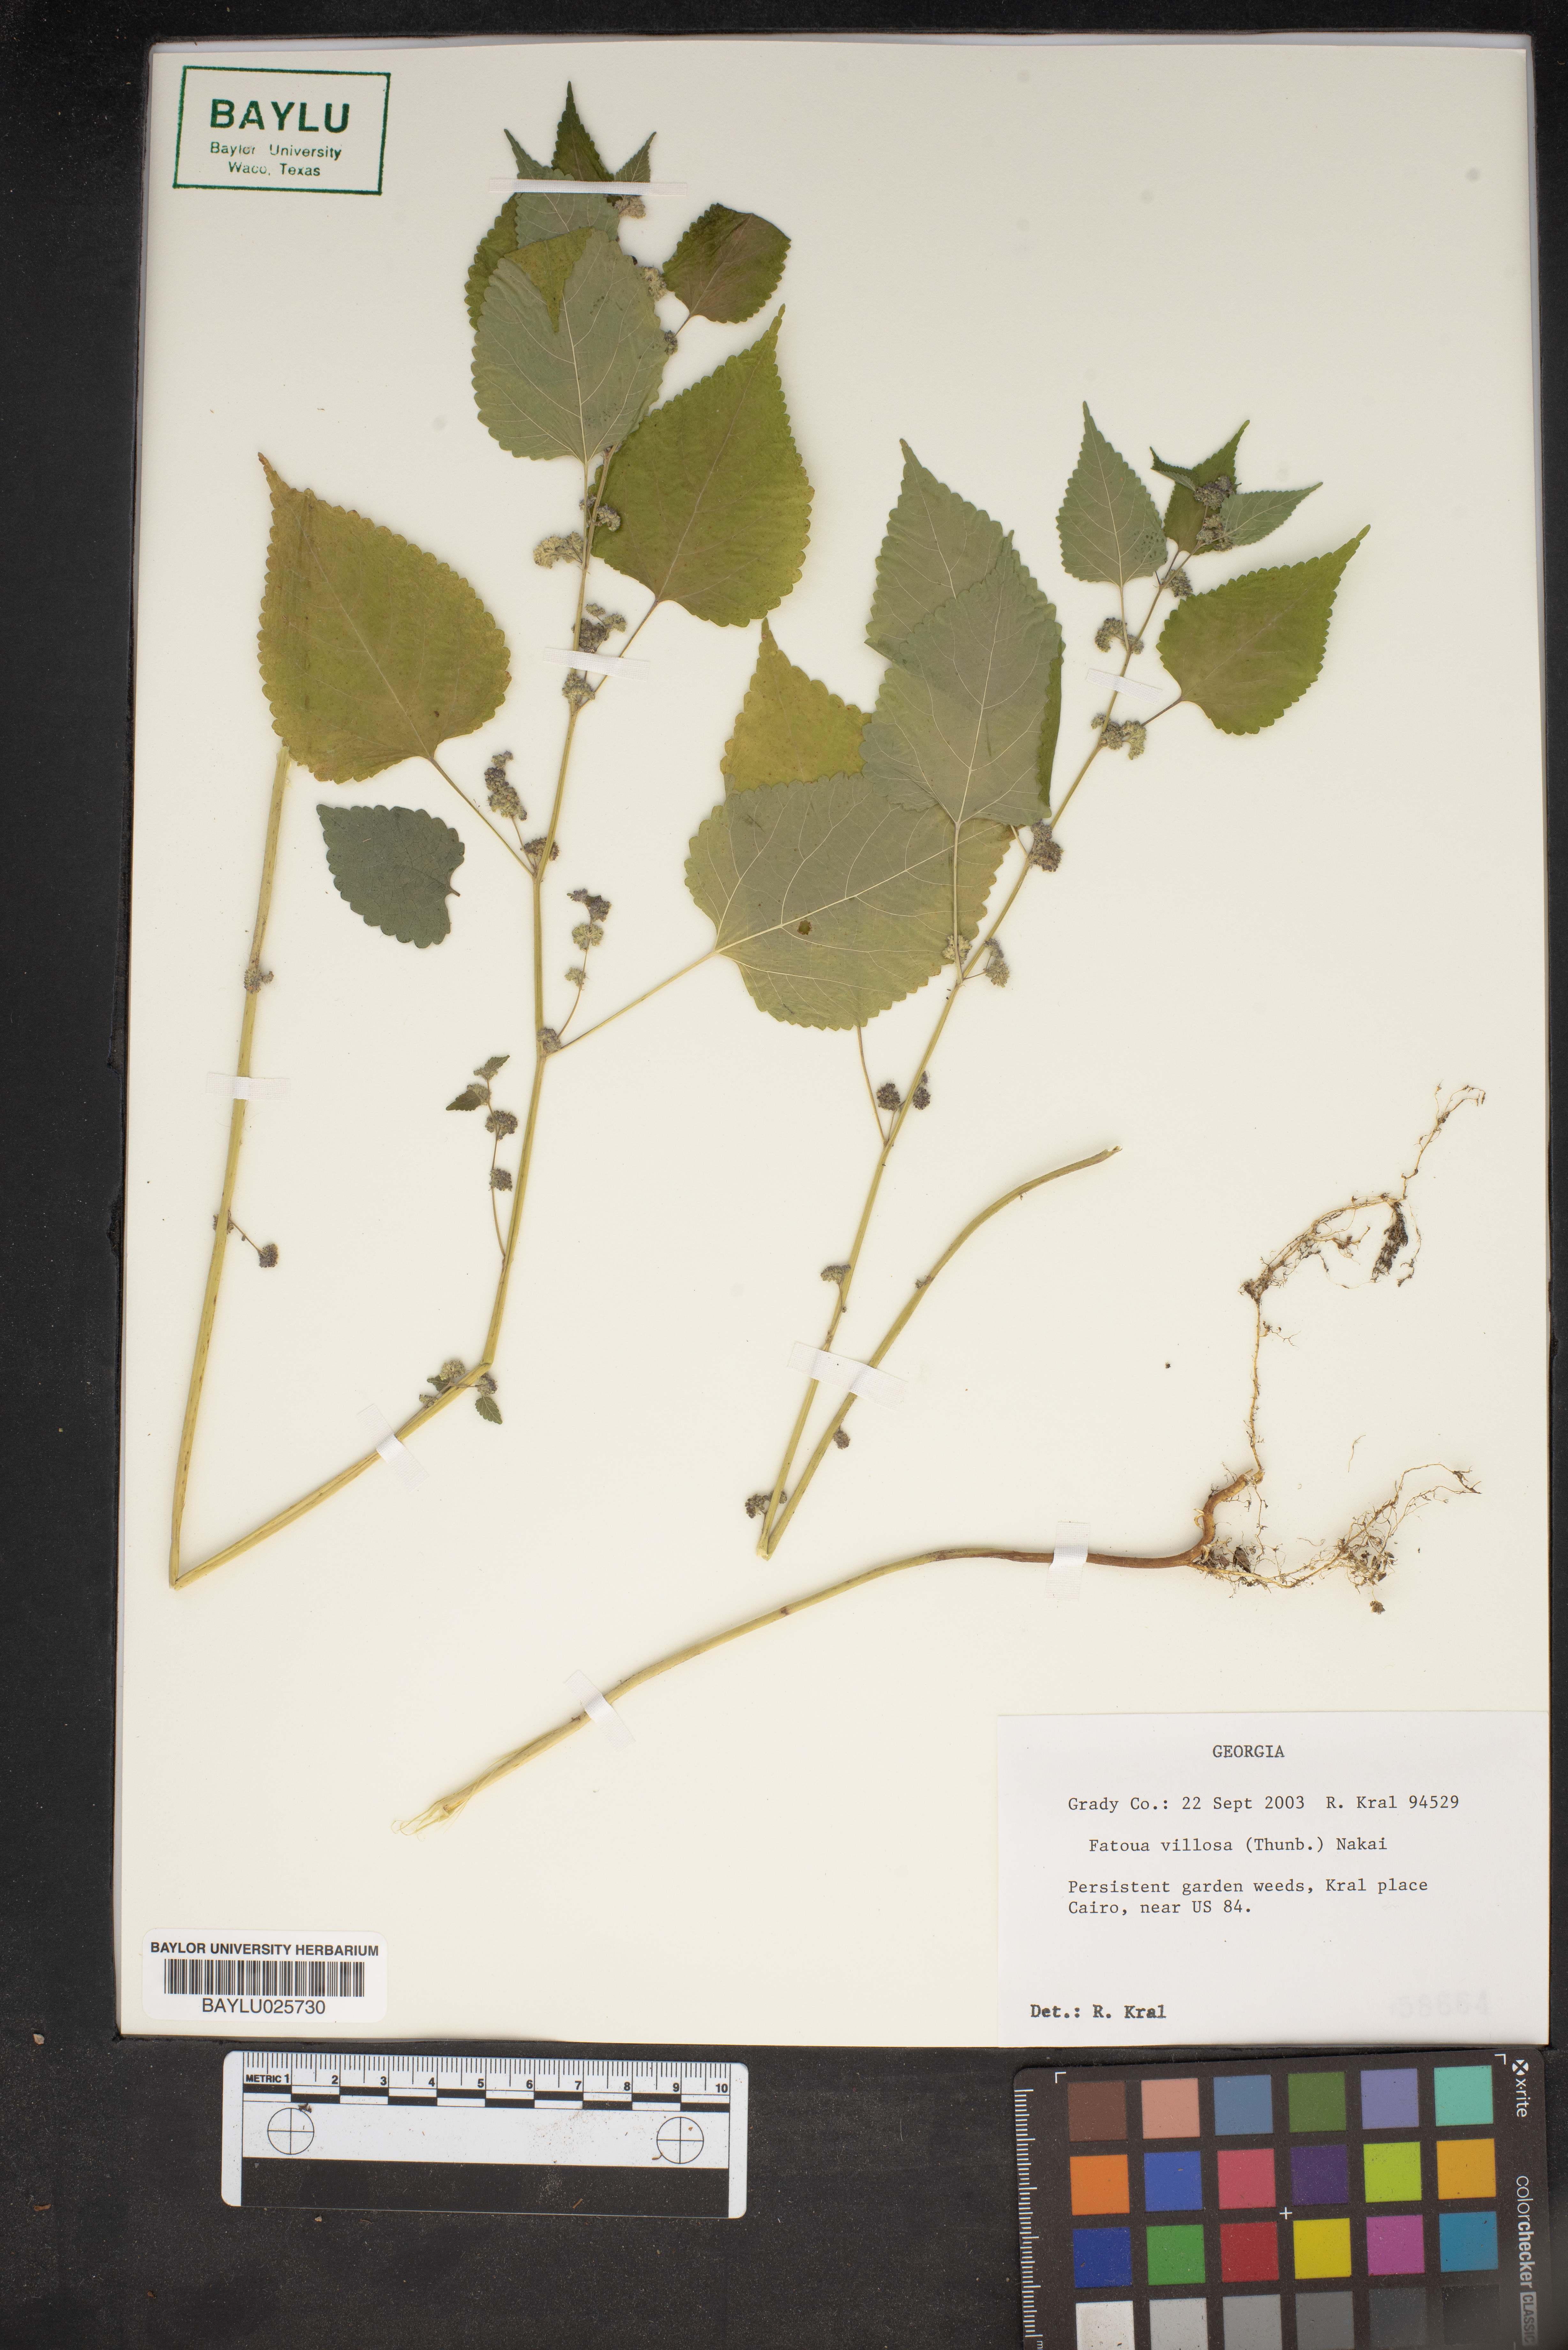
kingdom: Plantae
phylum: Tracheophyta
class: Magnoliopsida
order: Rosales
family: Moraceae
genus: Fatoua
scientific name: Fatoua villosa
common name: Hairy crabweed
